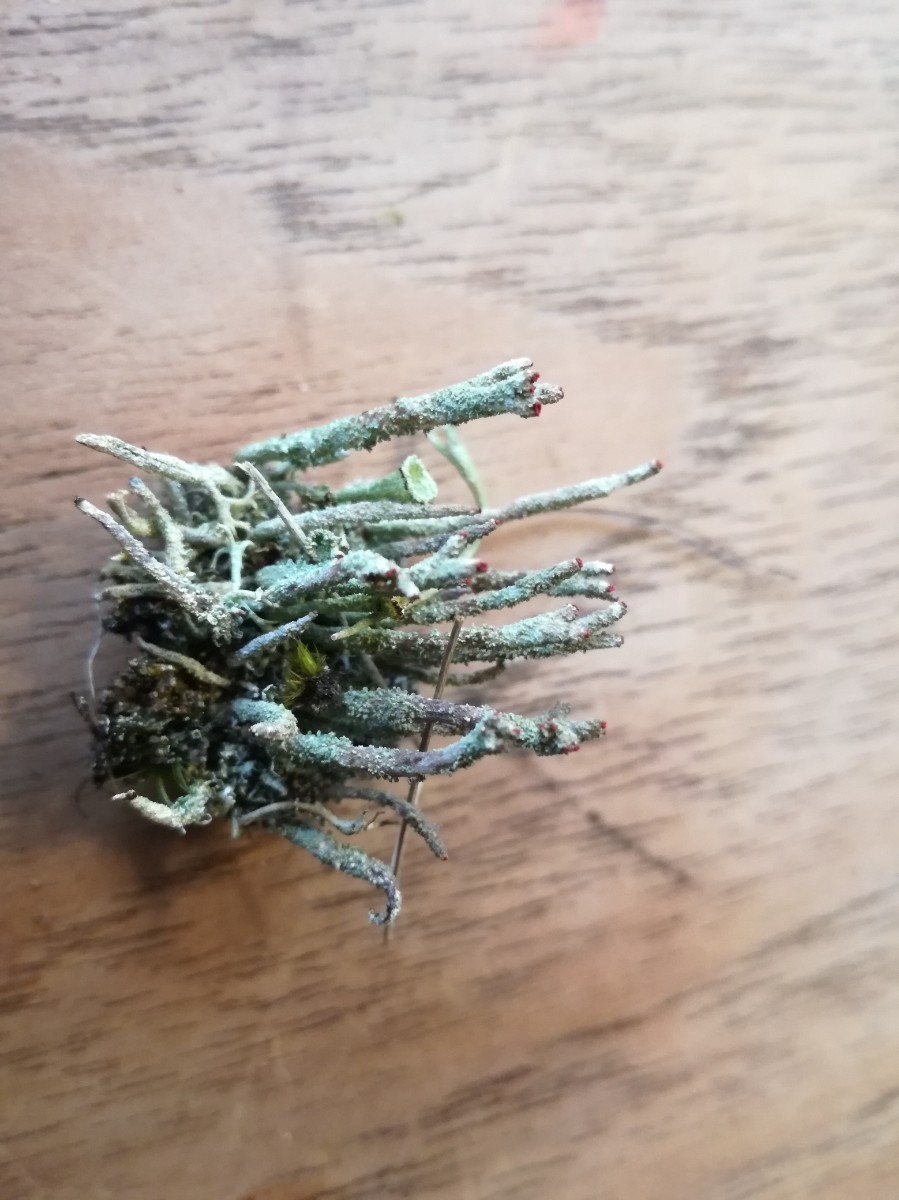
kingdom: Fungi
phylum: Ascomycota
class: Lecanoromycetes
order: Lecanorales
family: Cladoniaceae
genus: Cladonia
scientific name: Cladonia floerkeana
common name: lakrød bægerlav
